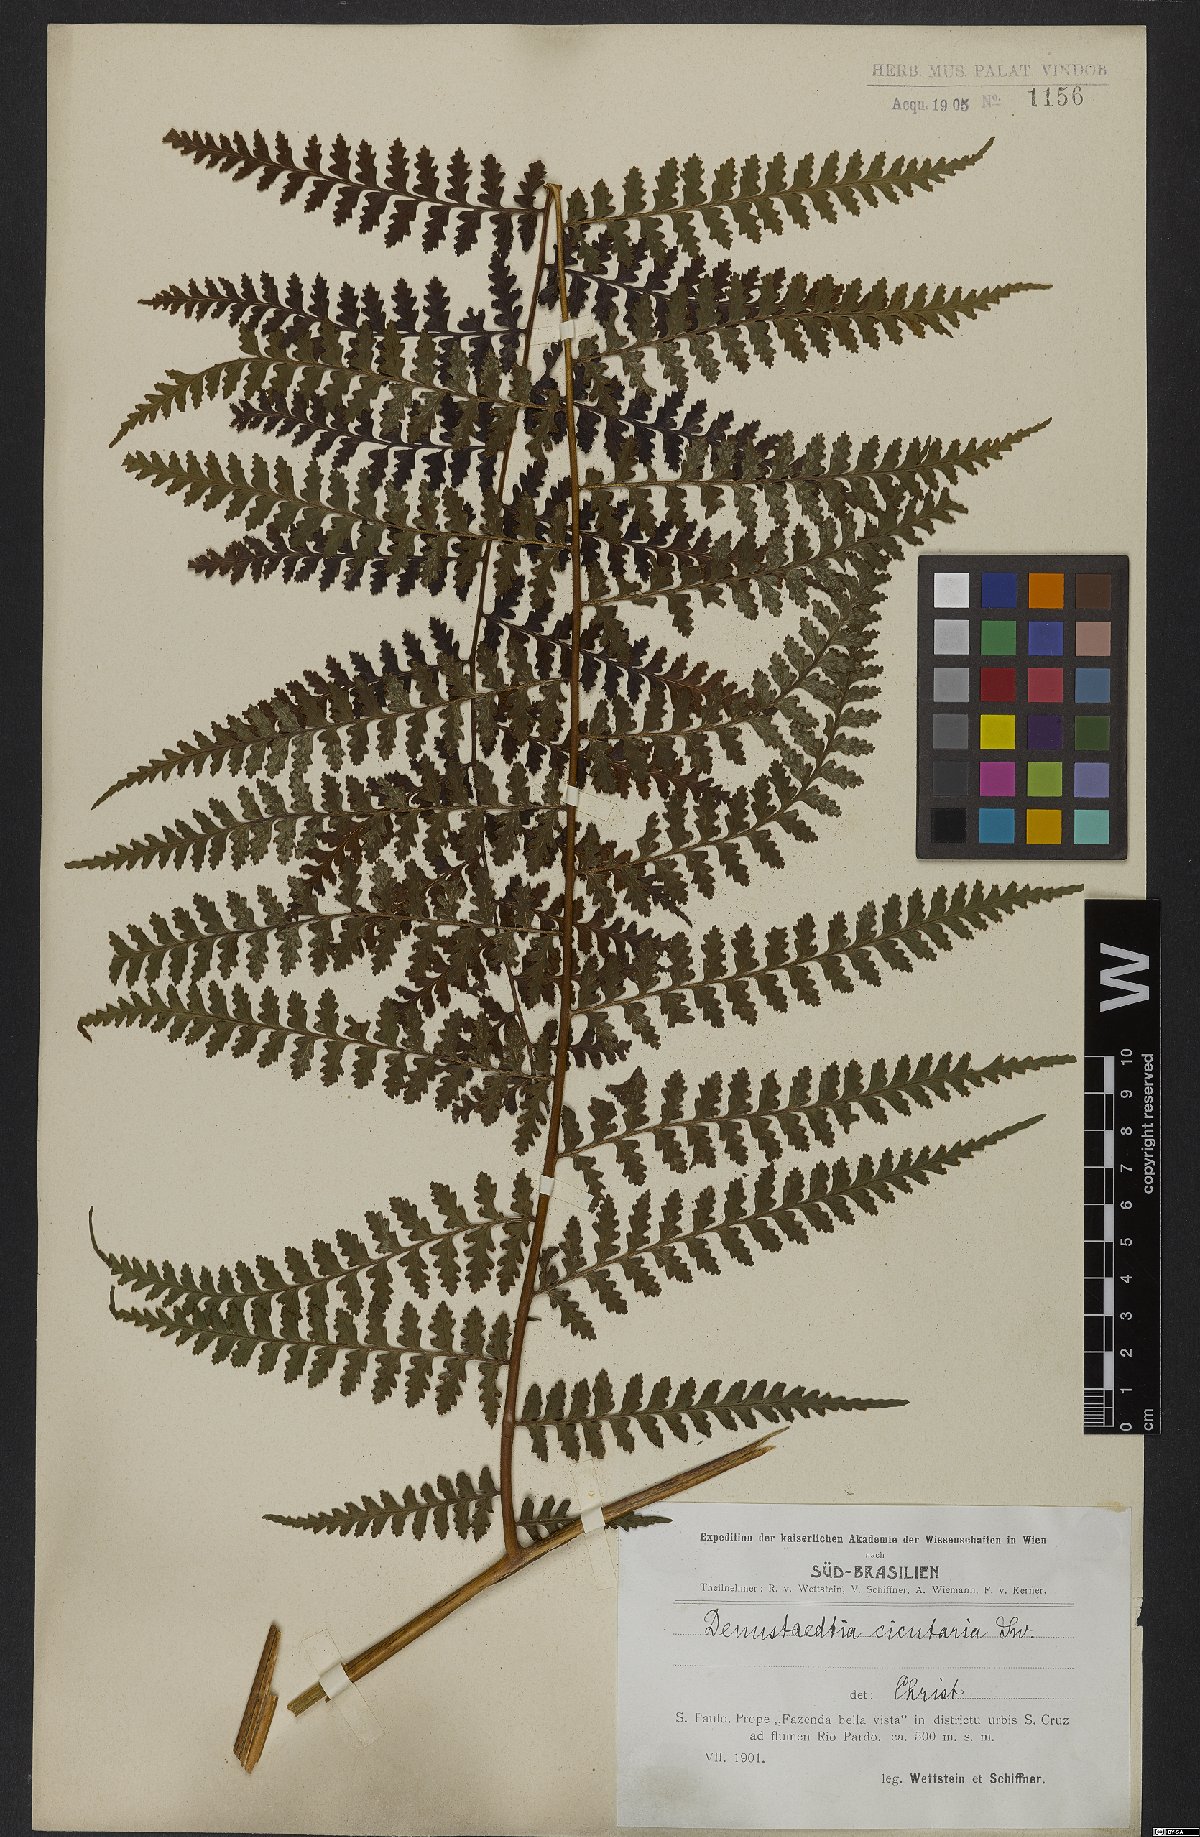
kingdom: Plantae
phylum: Tracheophyta
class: Polypodiopsida
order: Polypodiales
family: Dennstaedtiaceae
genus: Dennstaedtia
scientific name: Dennstaedtia cicutaria
